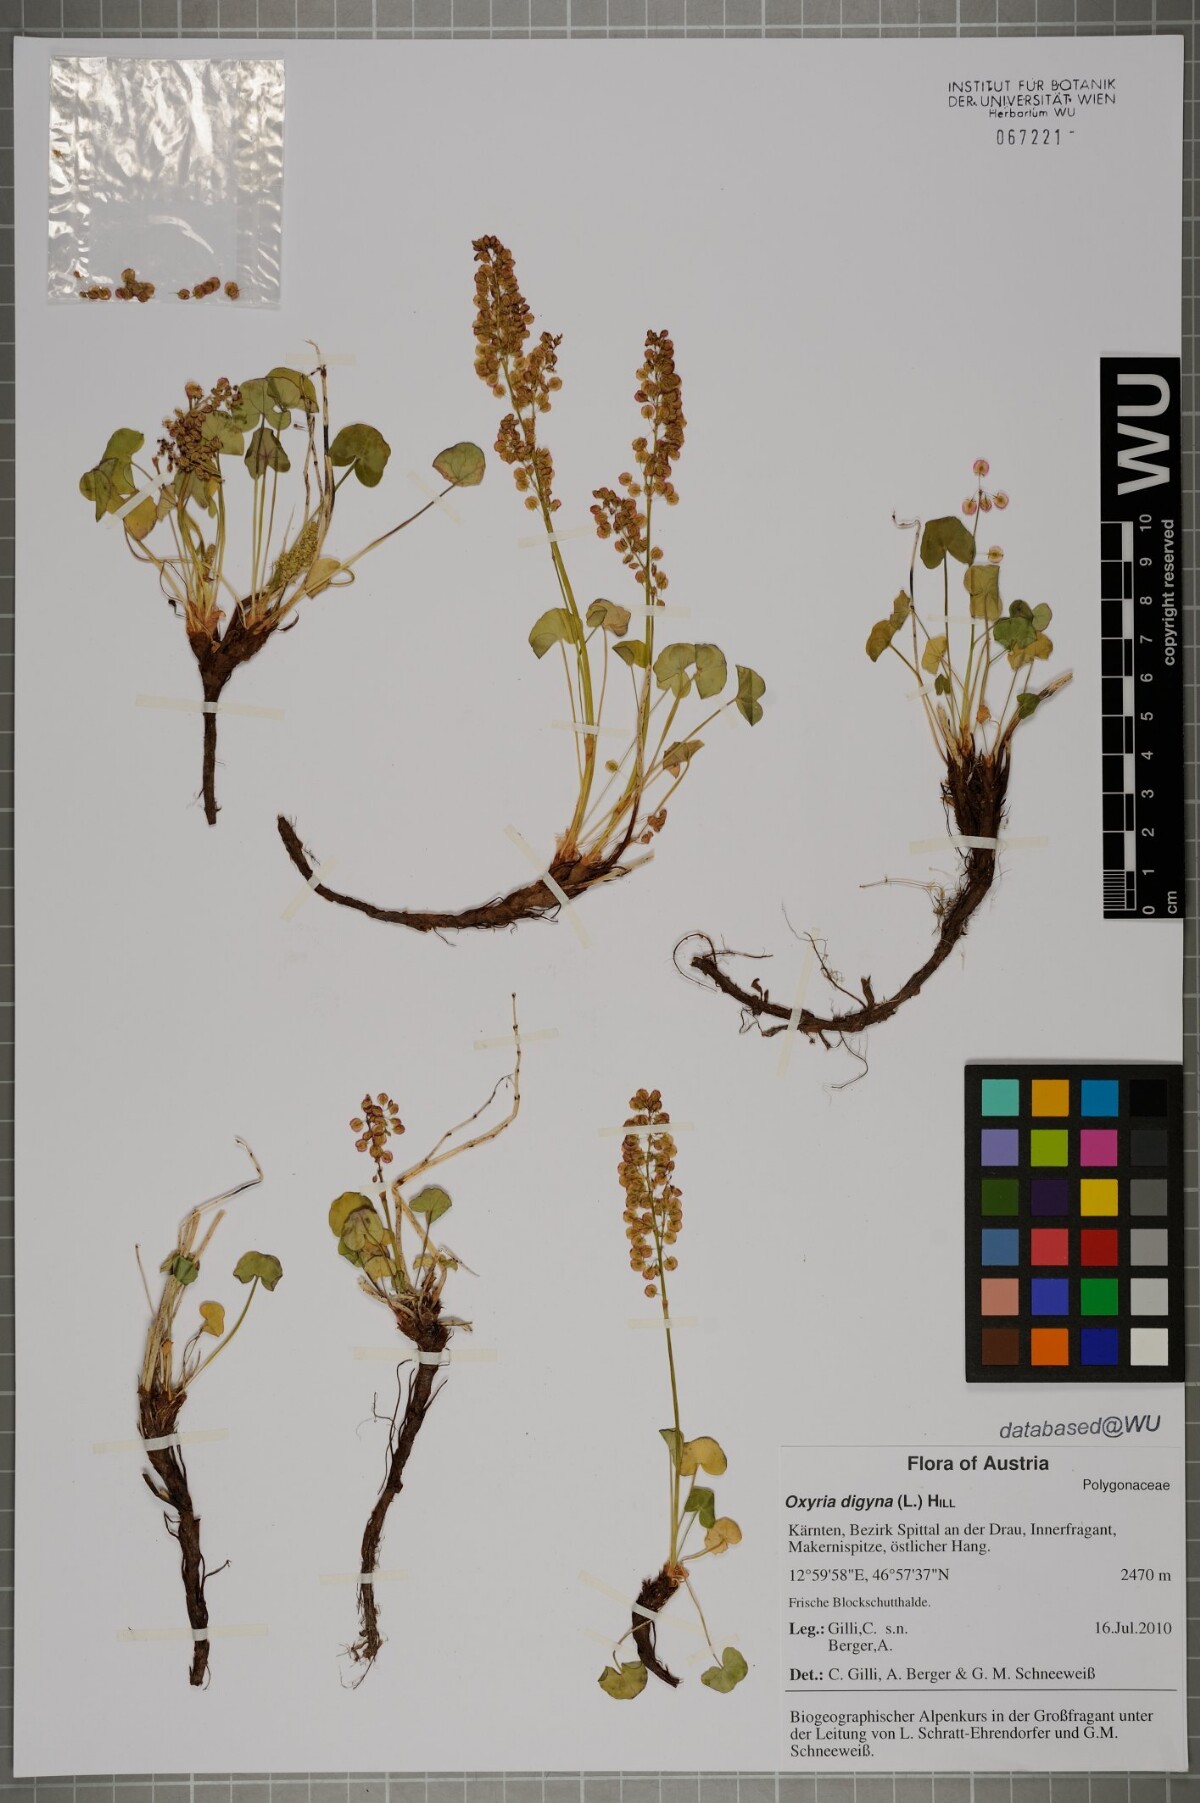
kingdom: Plantae
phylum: Tracheophyta
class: Magnoliopsida
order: Caryophyllales
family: Polygonaceae
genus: Oxyria
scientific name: Oxyria digyna
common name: Alpine mountain-sorrel
